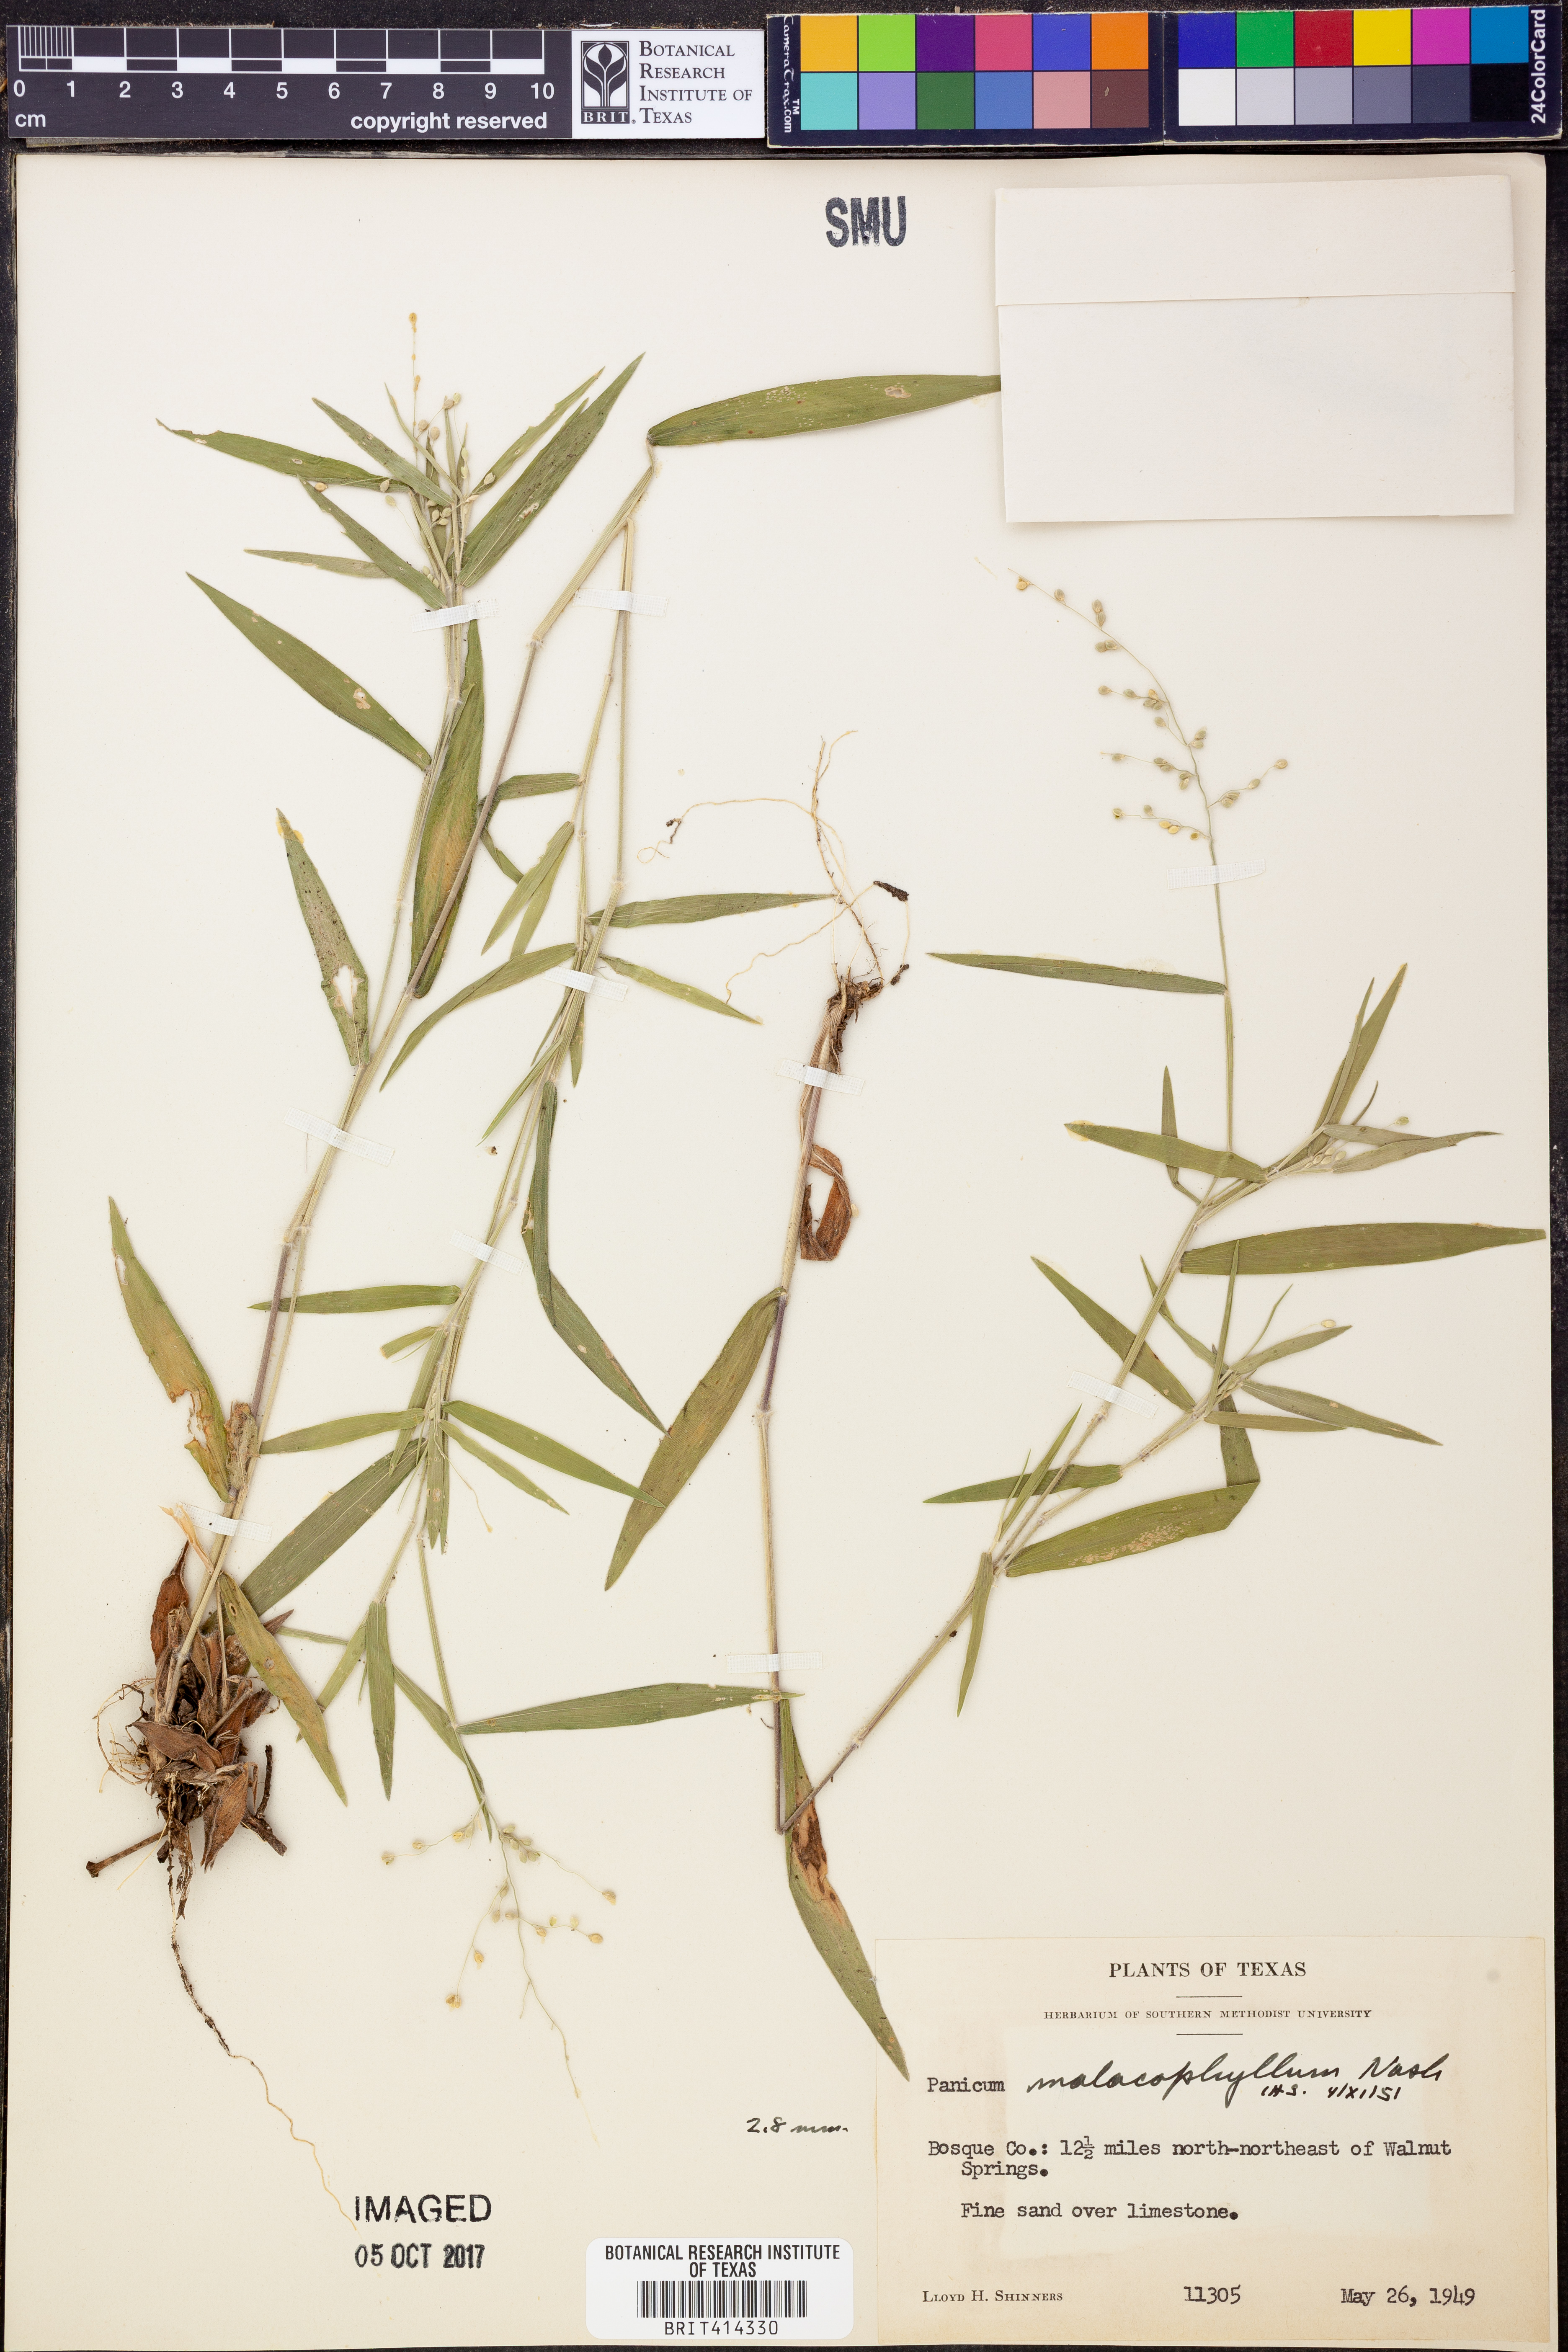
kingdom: Plantae
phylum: Tracheophyta
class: Liliopsida
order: Poales
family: Poaceae
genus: Dichanthelium
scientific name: Dichanthelium malacophyllum
